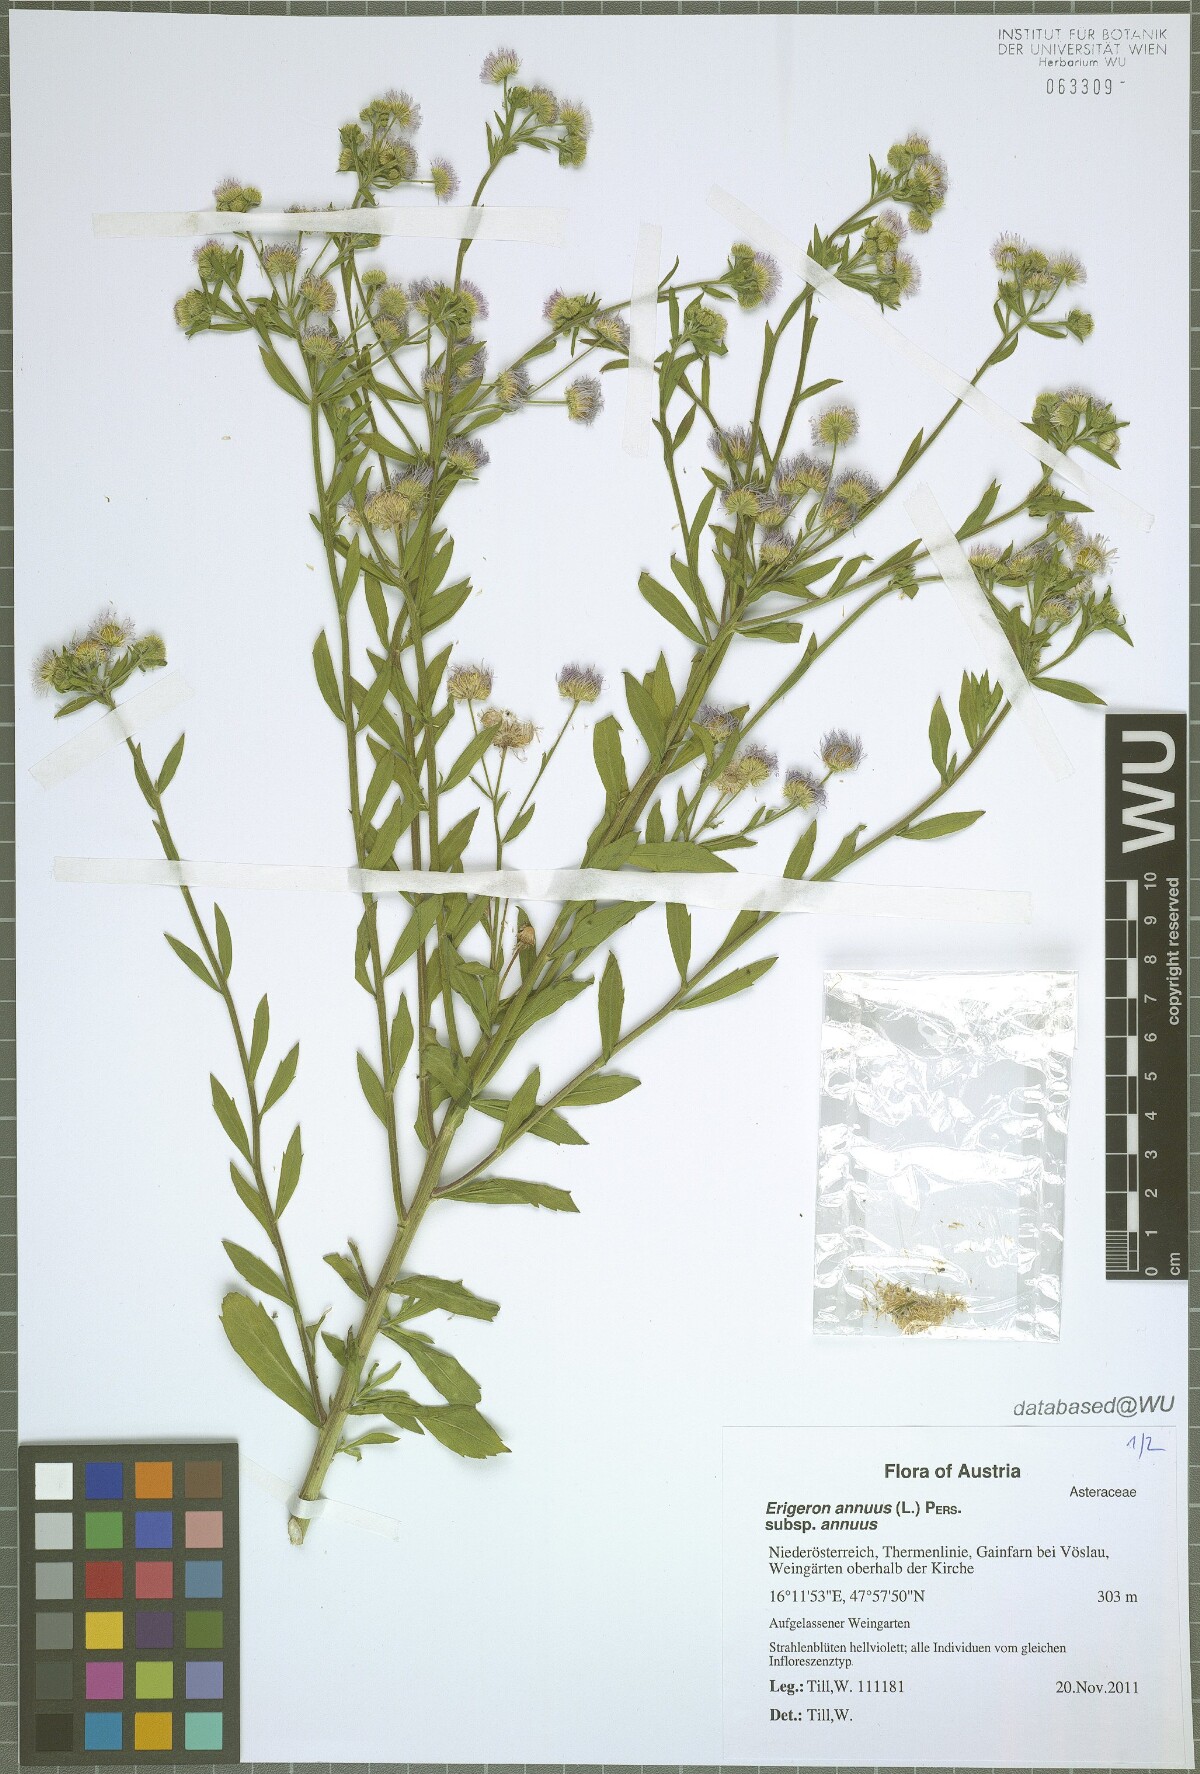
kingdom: Plantae
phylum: Tracheophyta
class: Magnoliopsida
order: Asterales
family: Asteraceae
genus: Erigeron
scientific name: Erigeron annuus
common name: Tall fleabane
